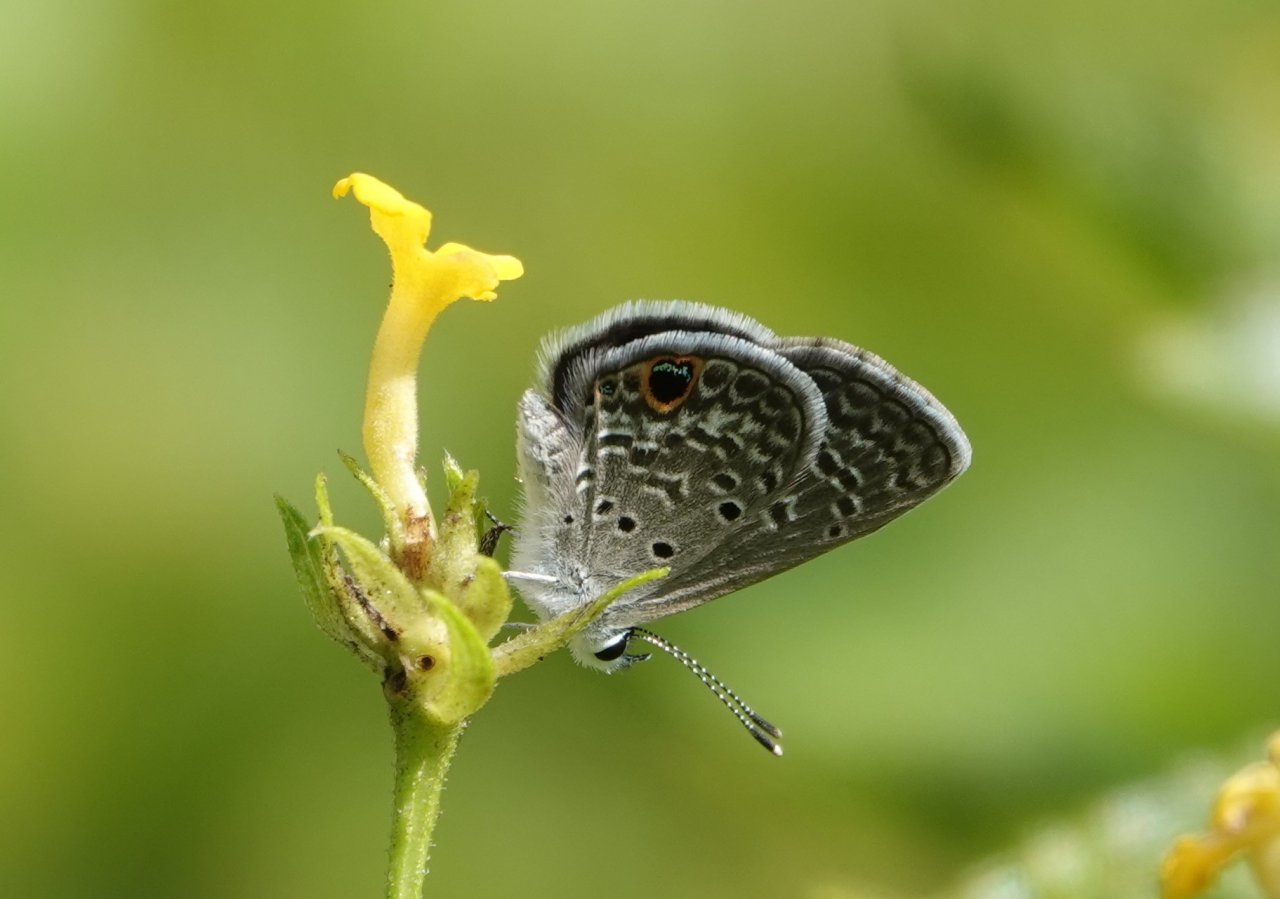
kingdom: Animalia
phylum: Arthropoda
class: Insecta
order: Lepidoptera
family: Lycaenidae
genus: Hemiargus
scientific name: Hemiargus ceraunus
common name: Ceraunus Blue
